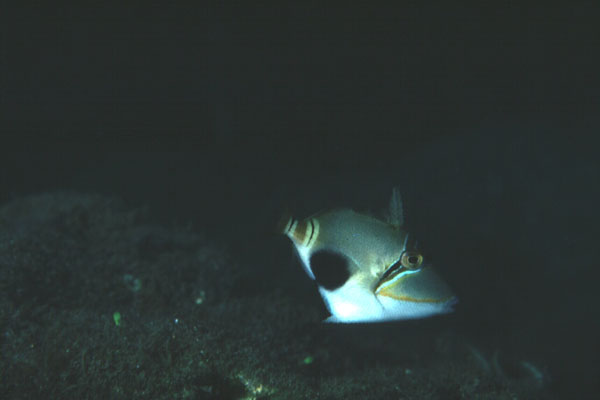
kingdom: Animalia
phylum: Chordata
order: Tetraodontiformes
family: Balistidae
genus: Rhinecanthus
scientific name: Rhinecanthus verrucosus
